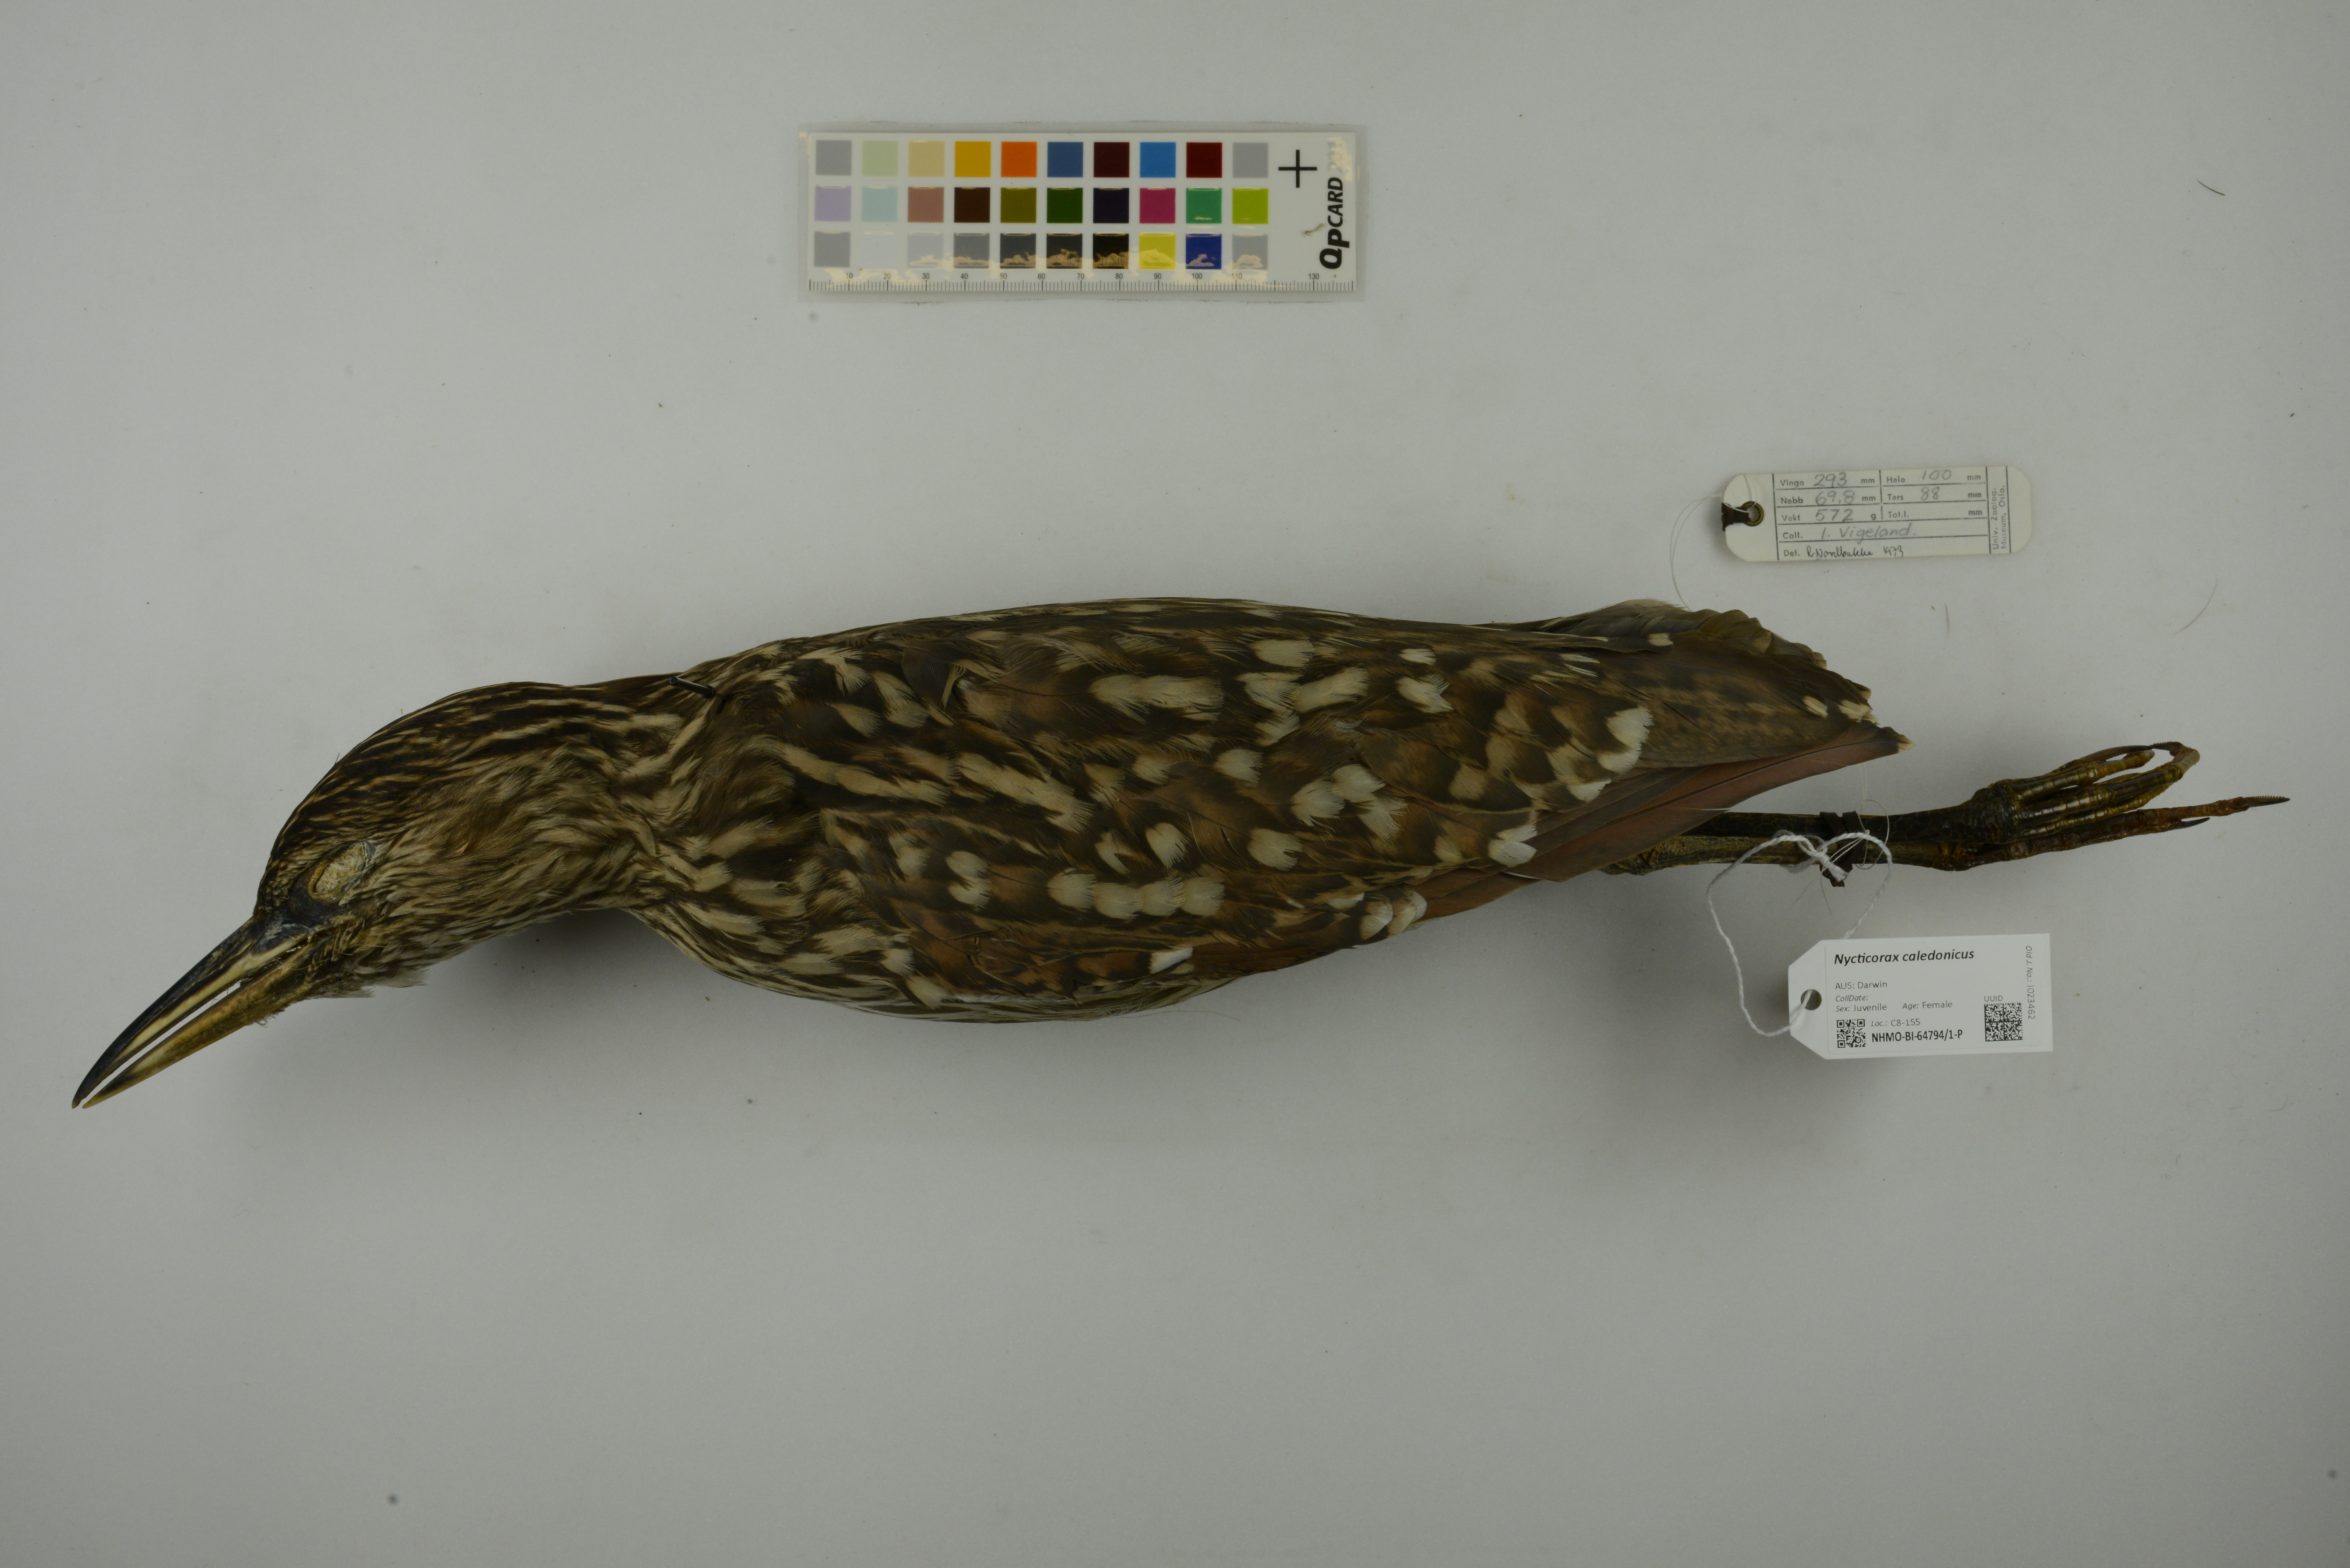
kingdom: Animalia
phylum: Chordata
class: Aves
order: Pelecaniformes
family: Ardeidae
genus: Nycticorax
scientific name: Nycticorax caledonicus
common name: Rufous night-heron
